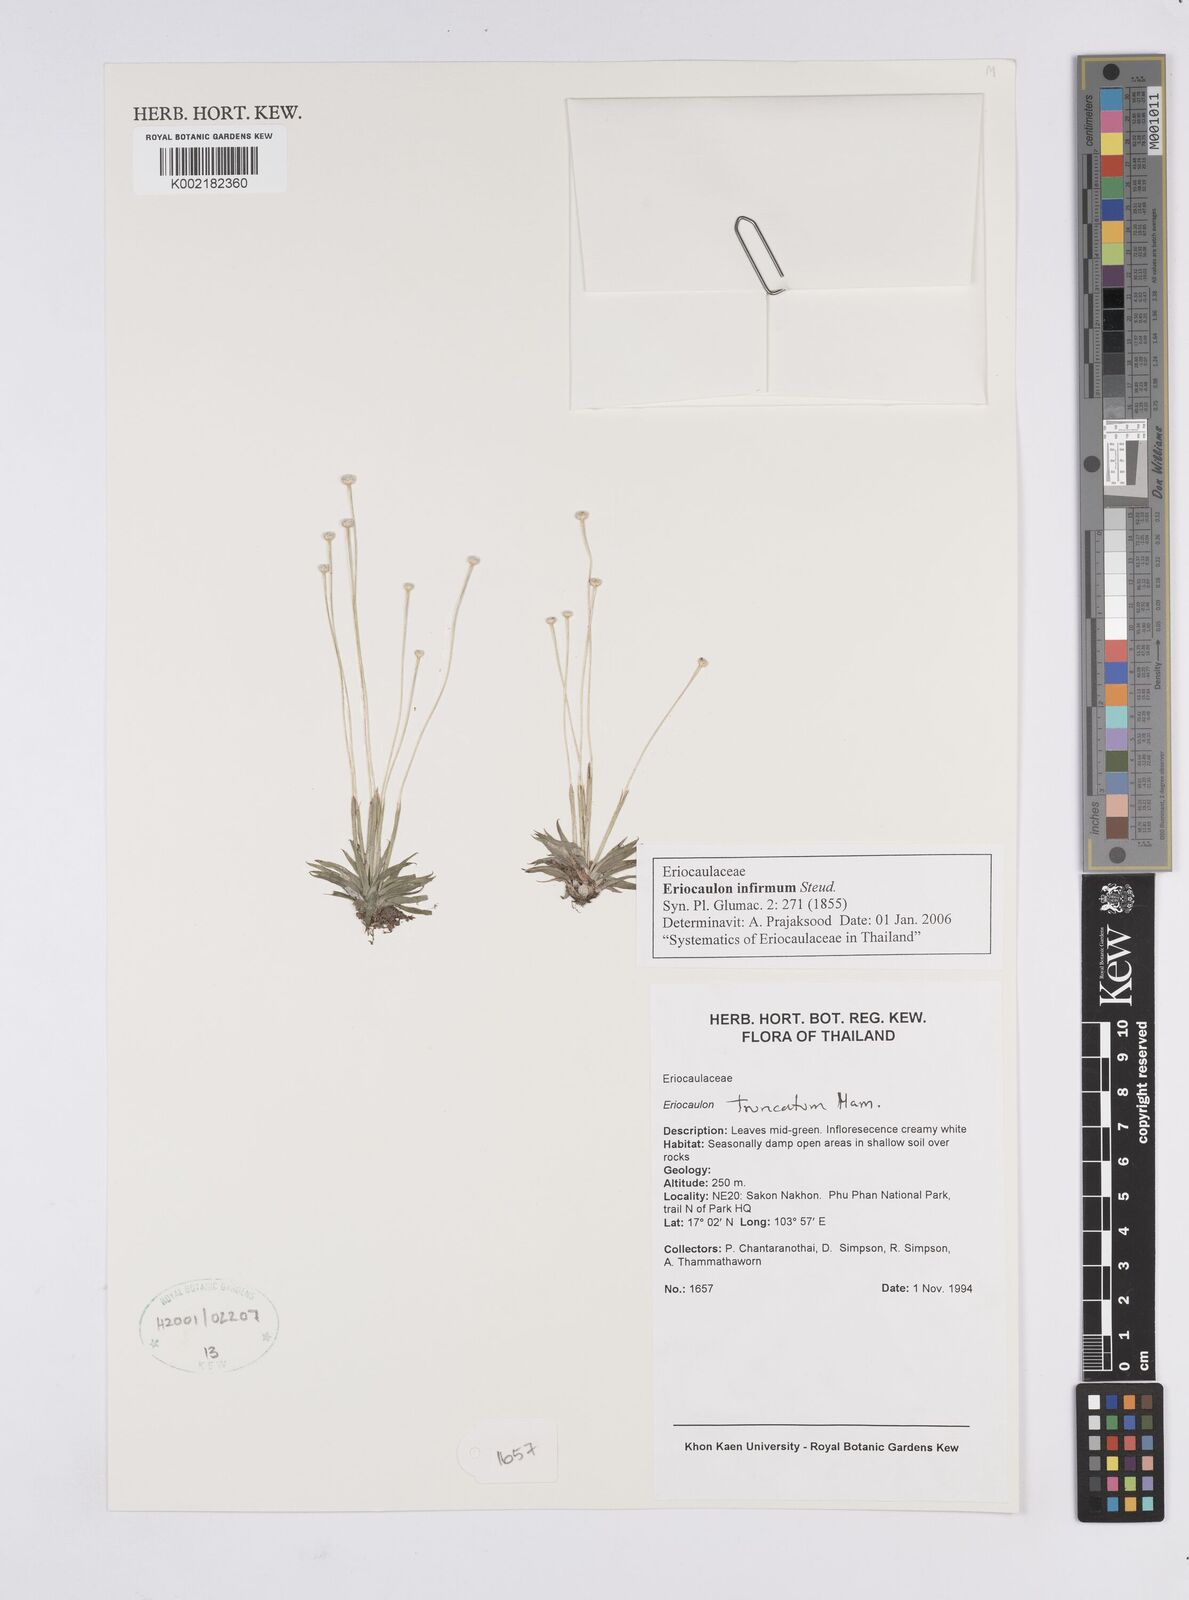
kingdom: Plantae
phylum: Tracheophyta
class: Liliopsida
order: Poales
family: Eriocaulaceae
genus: Eriocaulon
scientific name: Eriocaulon infirmum
